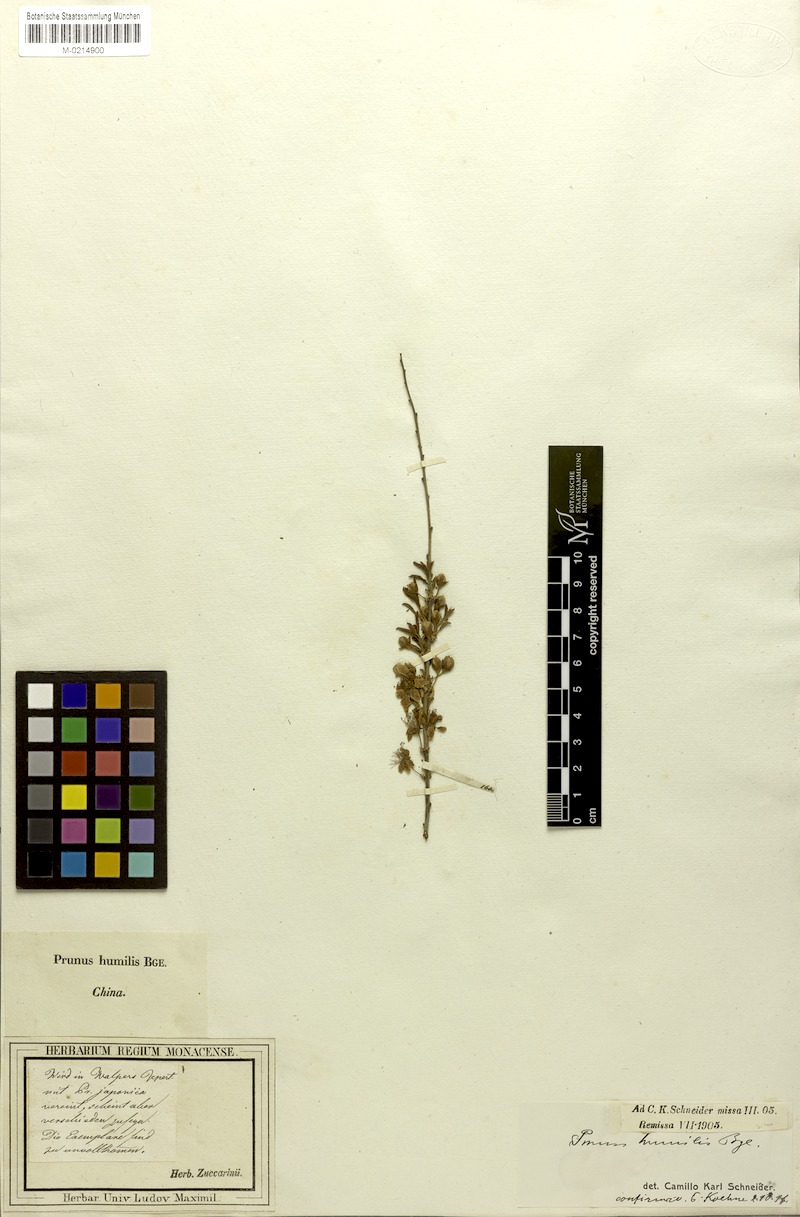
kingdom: Plantae
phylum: Tracheophyta
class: Magnoliopsida
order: Rosales
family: Rosaceae
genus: Prunus
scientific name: Prunus humilis
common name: Humble bush cherry
